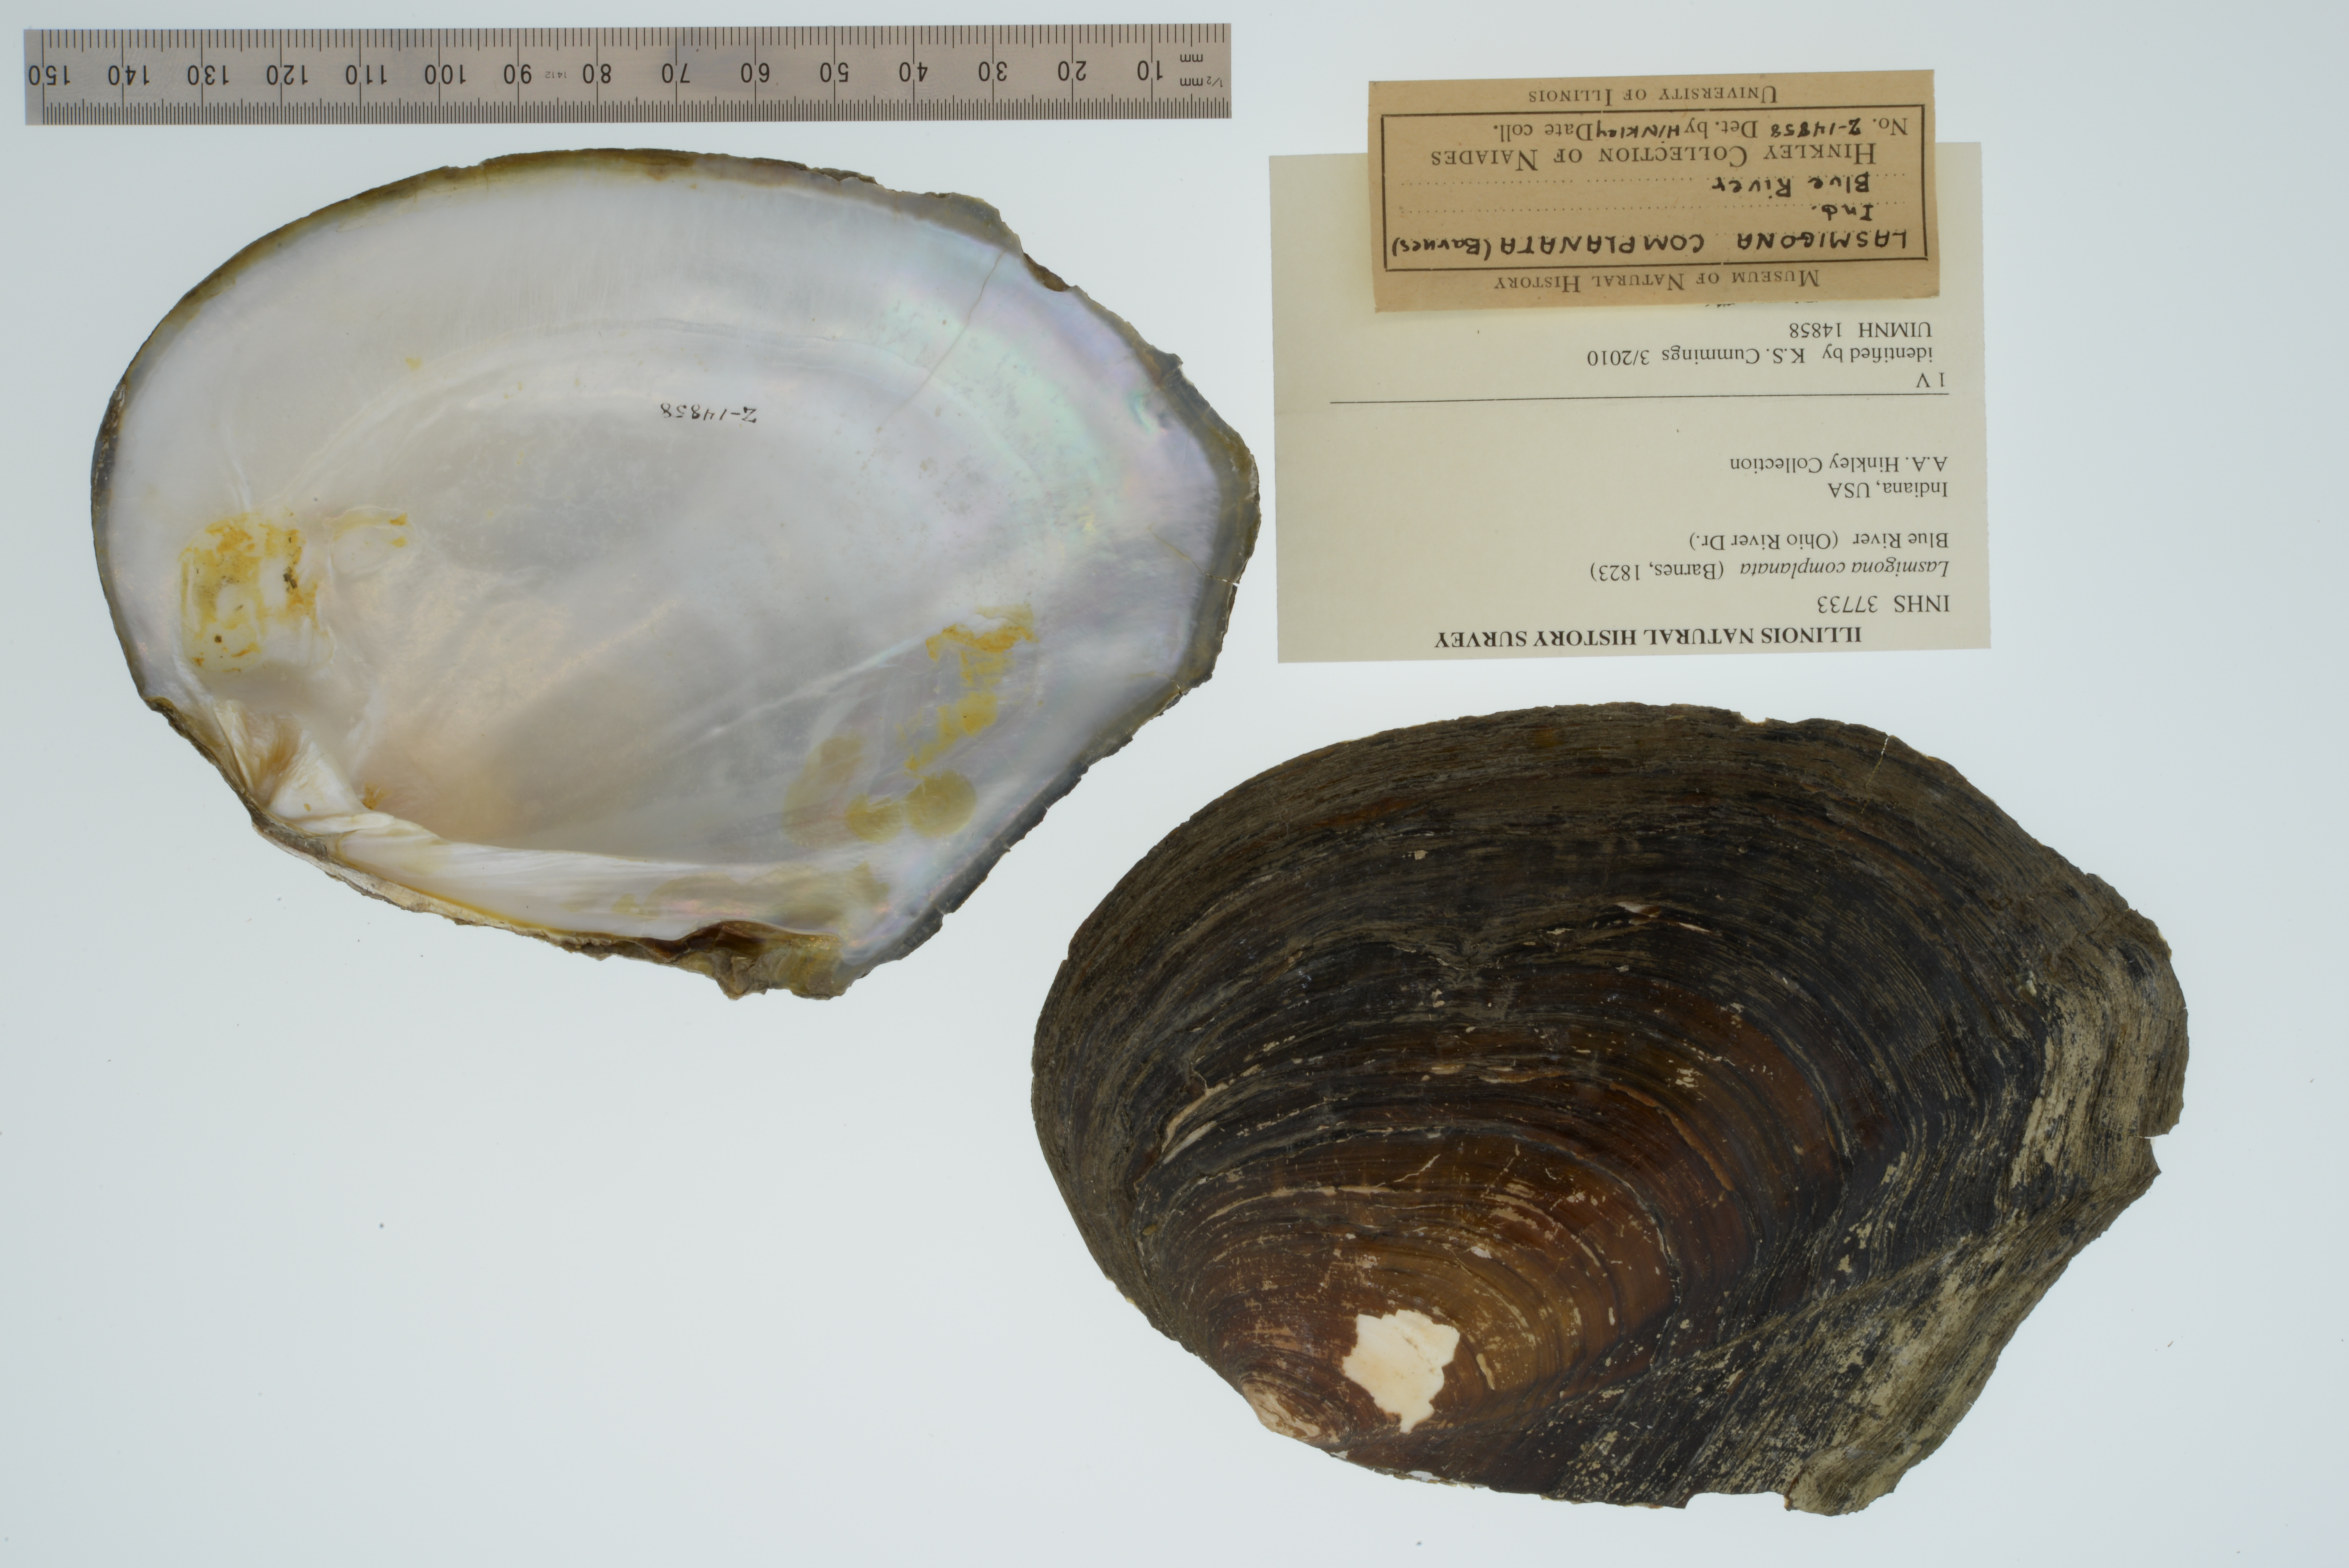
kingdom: Animalia
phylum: Mollusca
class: Bivalvia
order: Unionida
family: Unionidae
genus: Lasmigona
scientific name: Lasmigona complanata
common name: White heelsplitter
